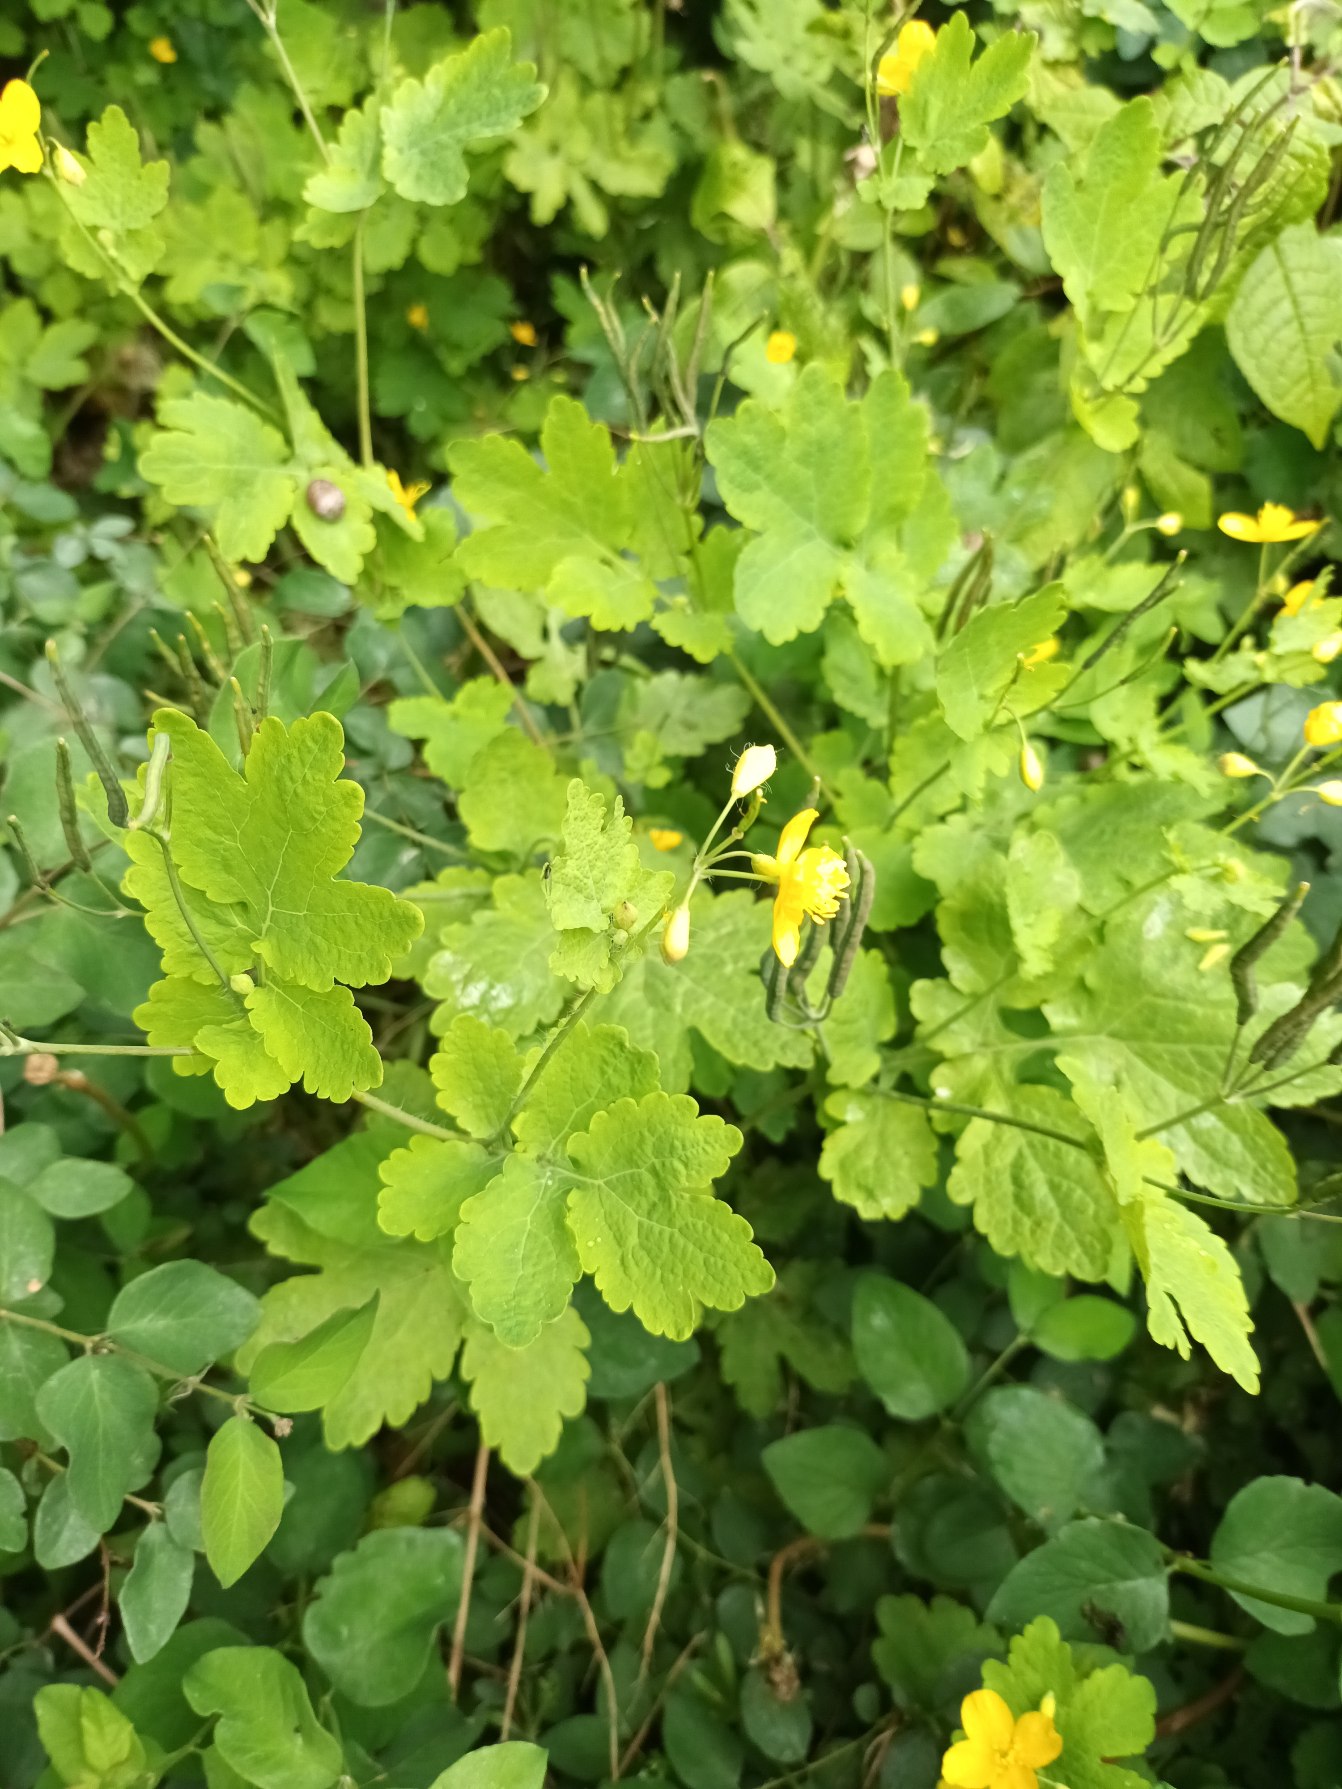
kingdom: Plantae
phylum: Tracheophyta
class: Magnoliopsida
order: Ranunculales
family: Papaveraceae
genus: Chelidonium
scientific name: Chelidonium majus
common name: Svaleurt
